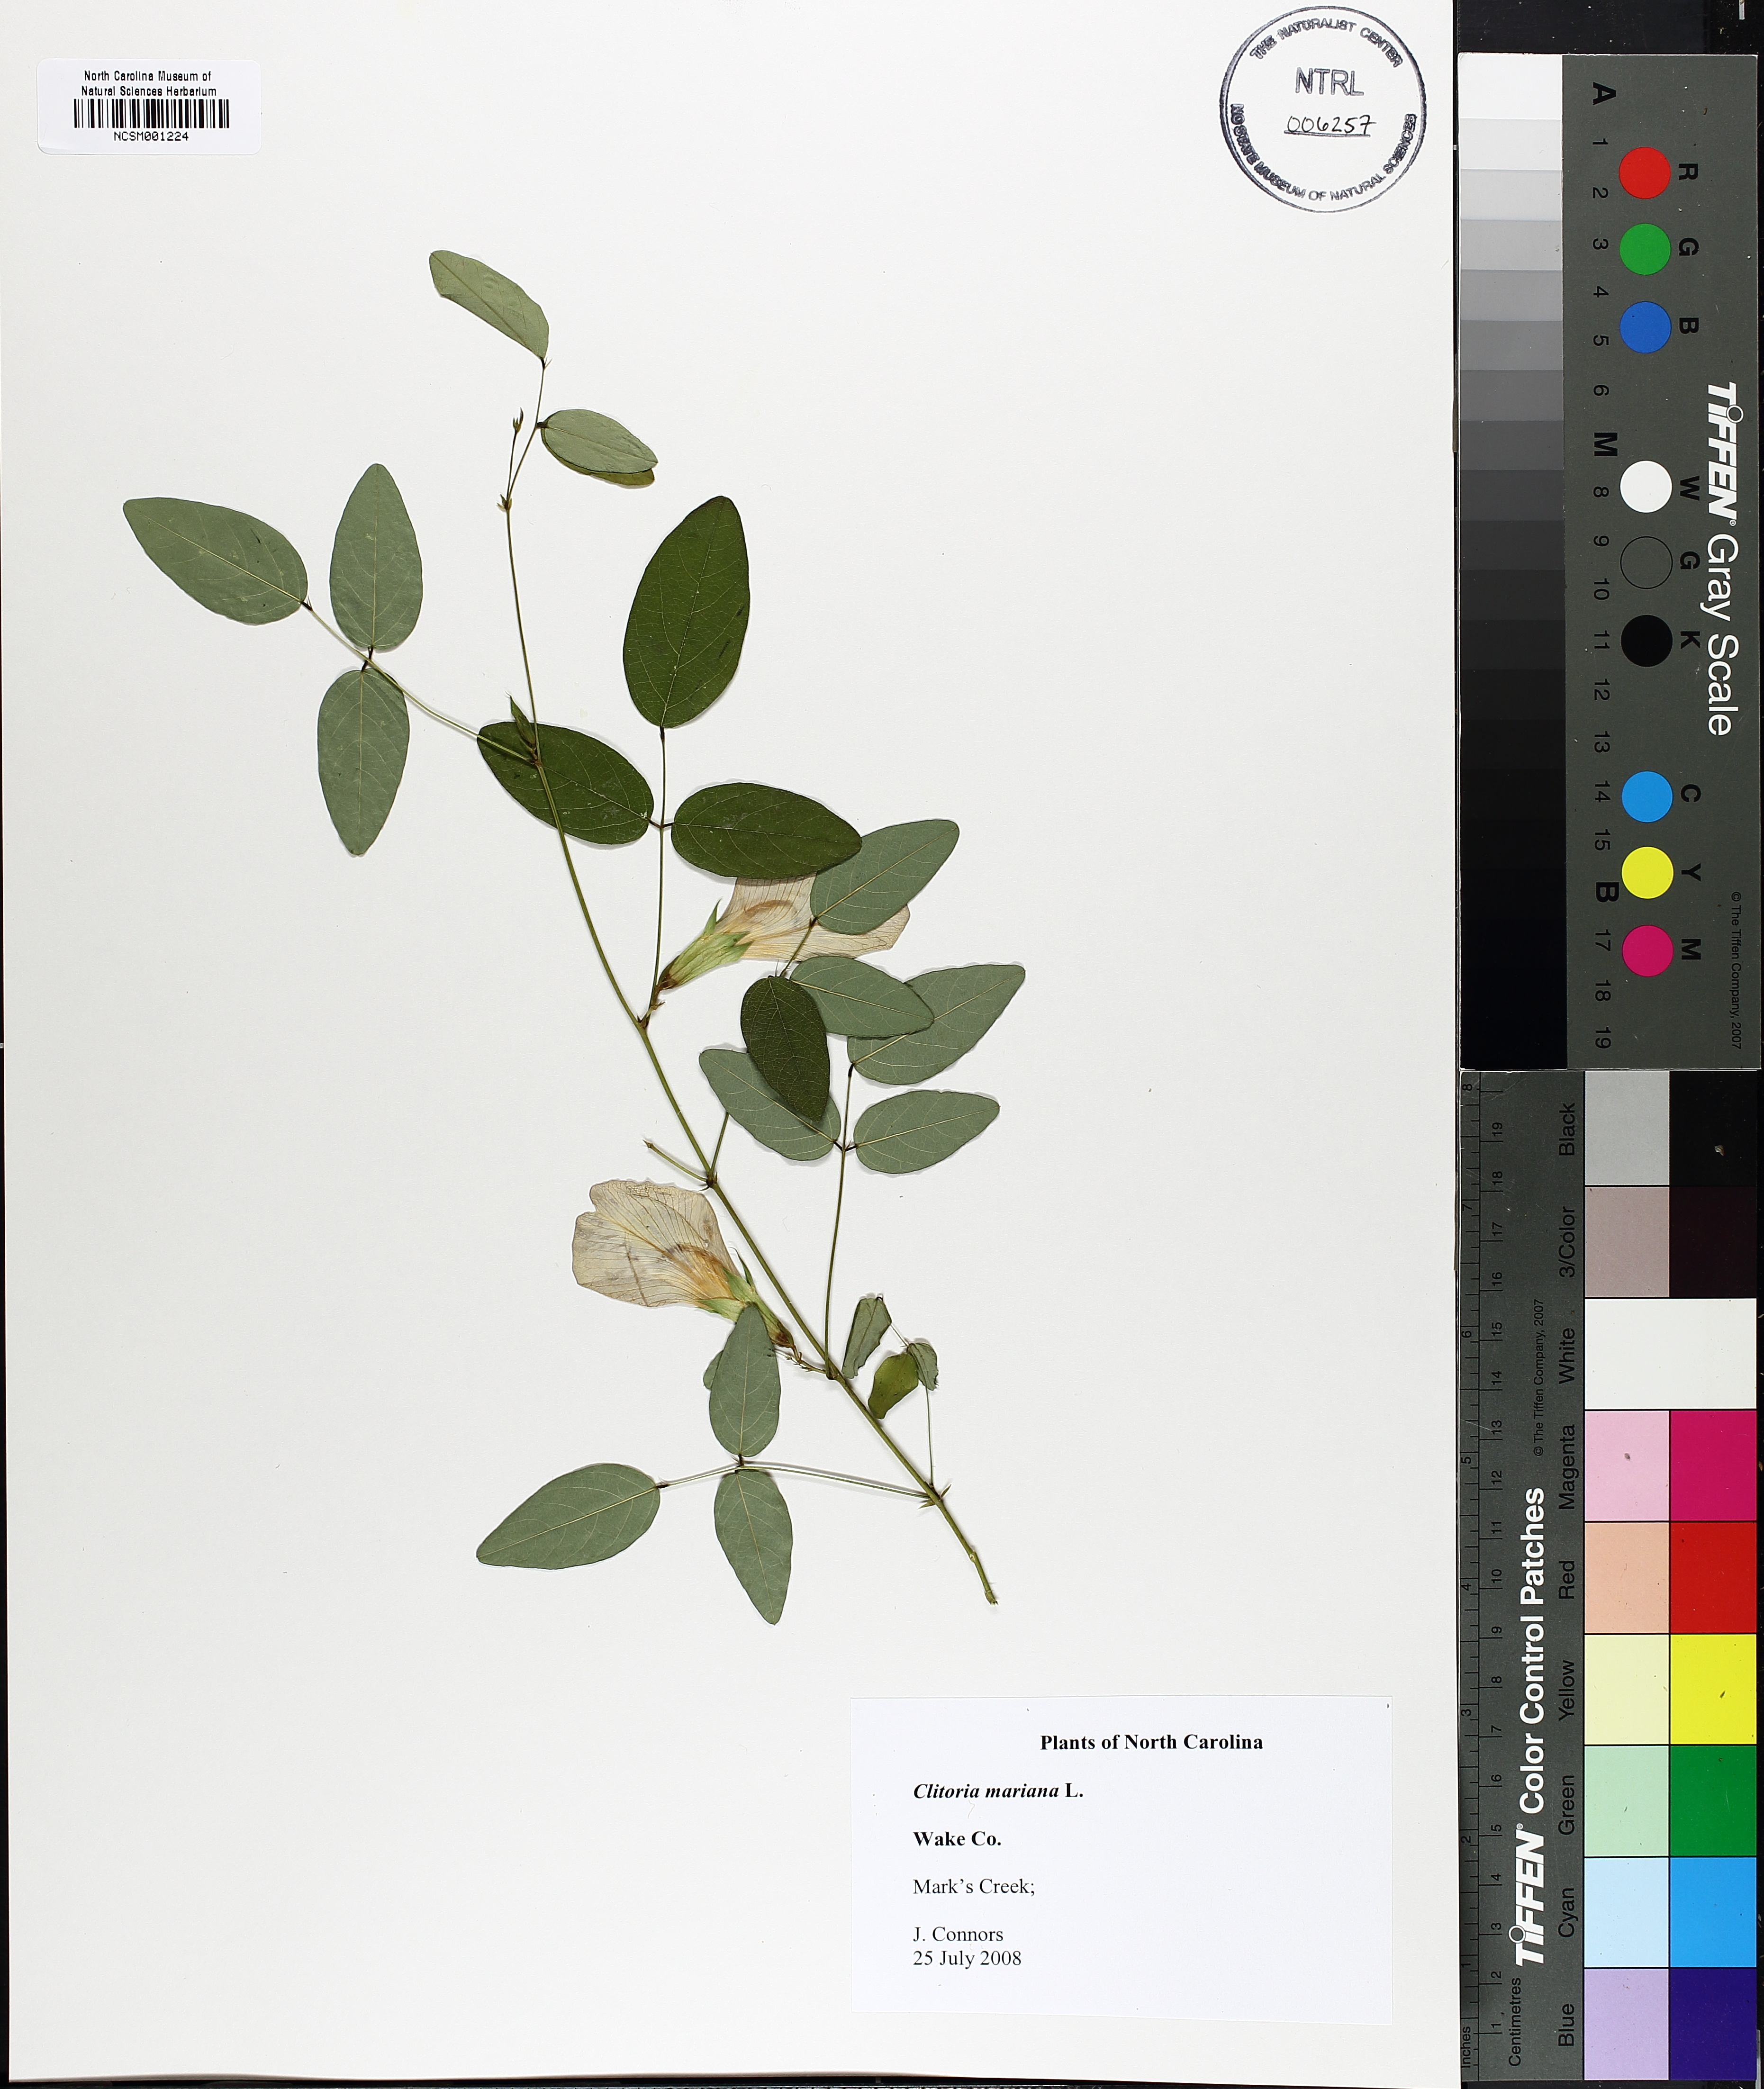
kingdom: Plantae
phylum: Tracheophyta
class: Magnoliopsida
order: Fabales
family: Fabaceae
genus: Clitoria
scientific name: Clitoria mariana
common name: Butterfly-pea
